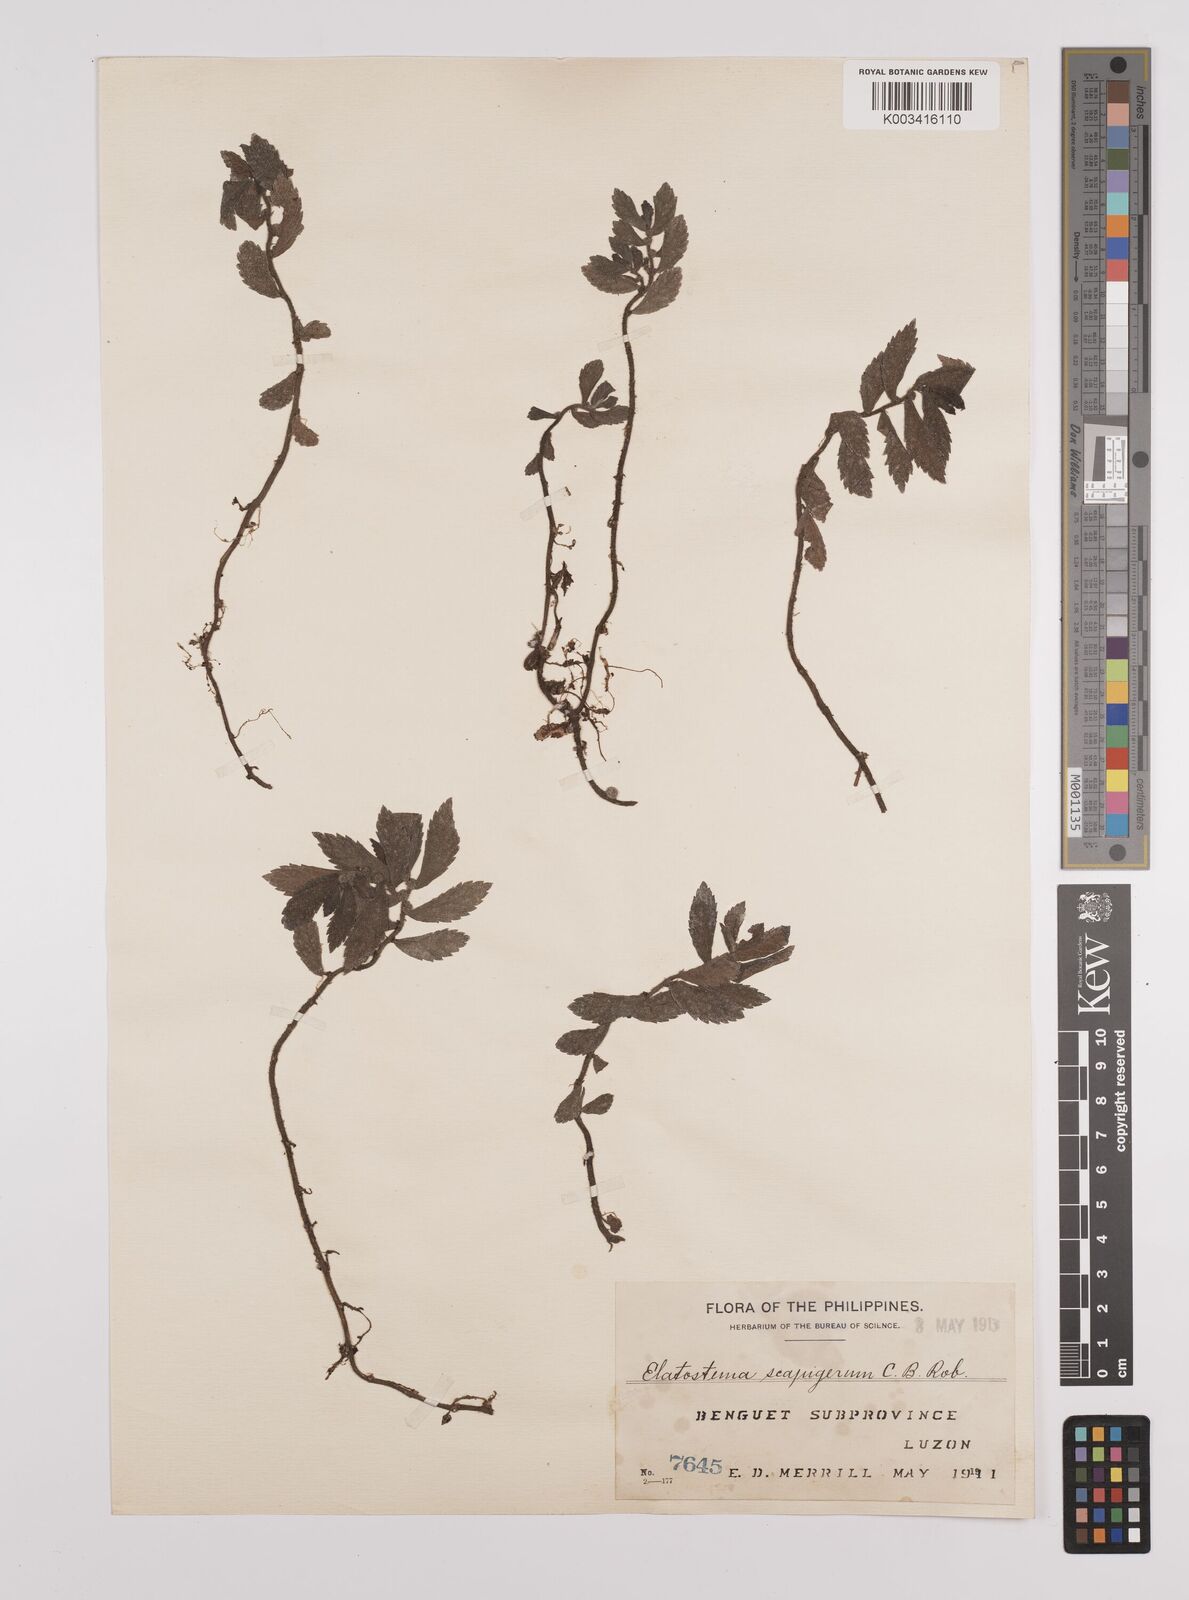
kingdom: Plantae
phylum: Tracheophyta
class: Magnoliopsida
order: Rosales
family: Urticaceae
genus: Elatostema
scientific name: Elatostema scapigerum
